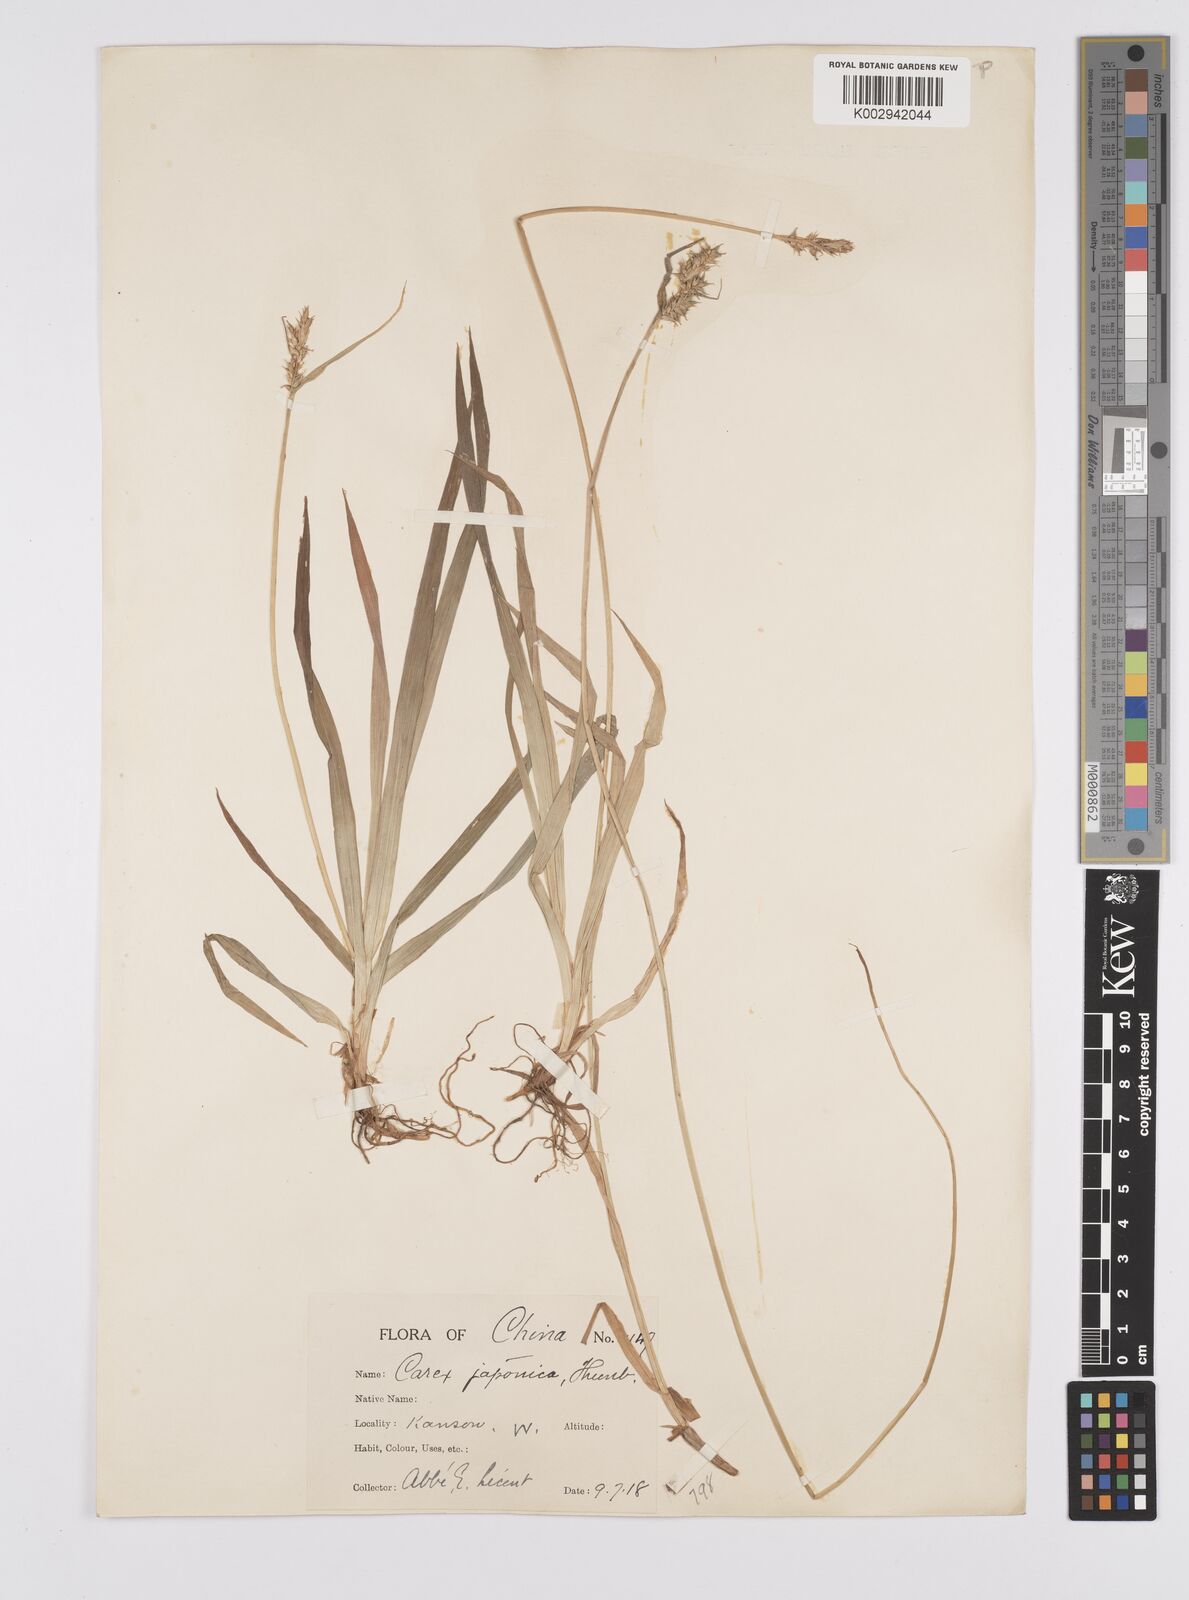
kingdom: Plantae
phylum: Tracheophyta
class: Liliopsida
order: Poales
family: Cyperaceae
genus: Carex
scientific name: Carex agglomerata
